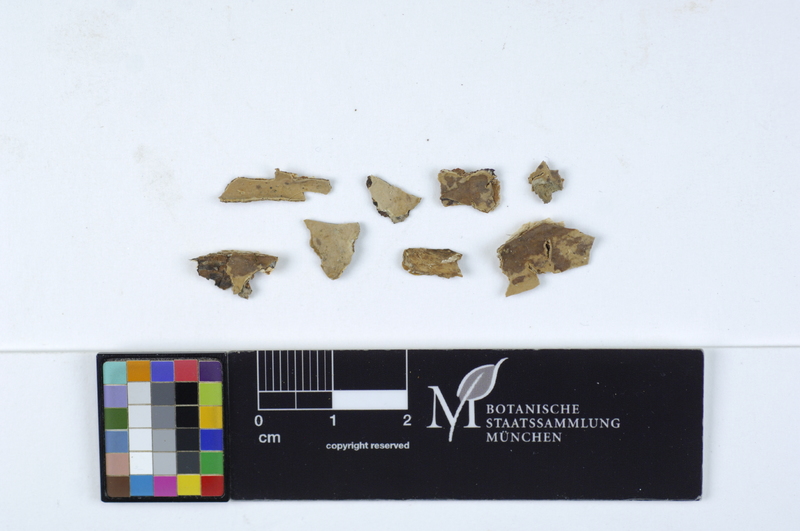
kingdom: Fungi
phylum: Basidiomycota
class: Agaricomycetes
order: Russulales
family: Stereaceae
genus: Gloeocystidiellum
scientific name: Gloeocystidiellum luridum
